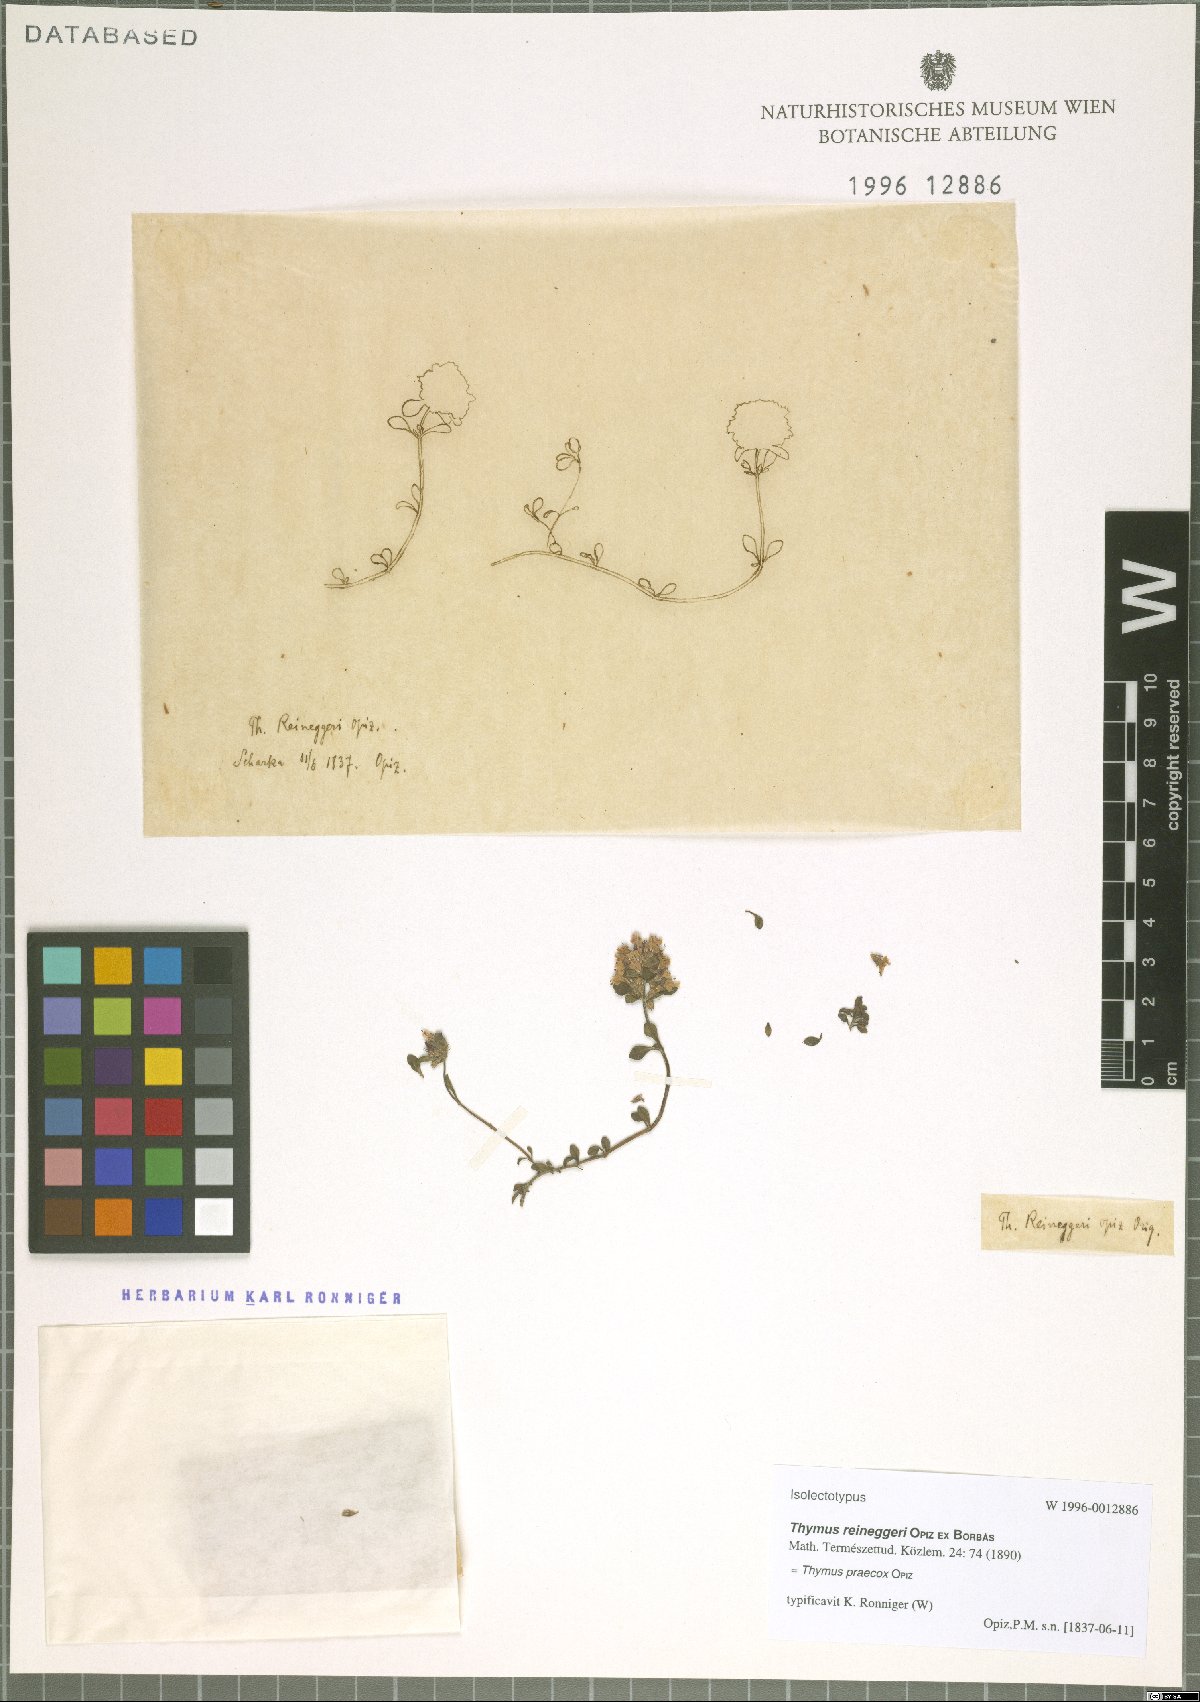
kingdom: Plantae
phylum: Tracheophyta
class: Magnoliopsida
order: Lamiales
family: Lamiaceae
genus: Thymus
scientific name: Thymus praecox
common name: Wild thyme
